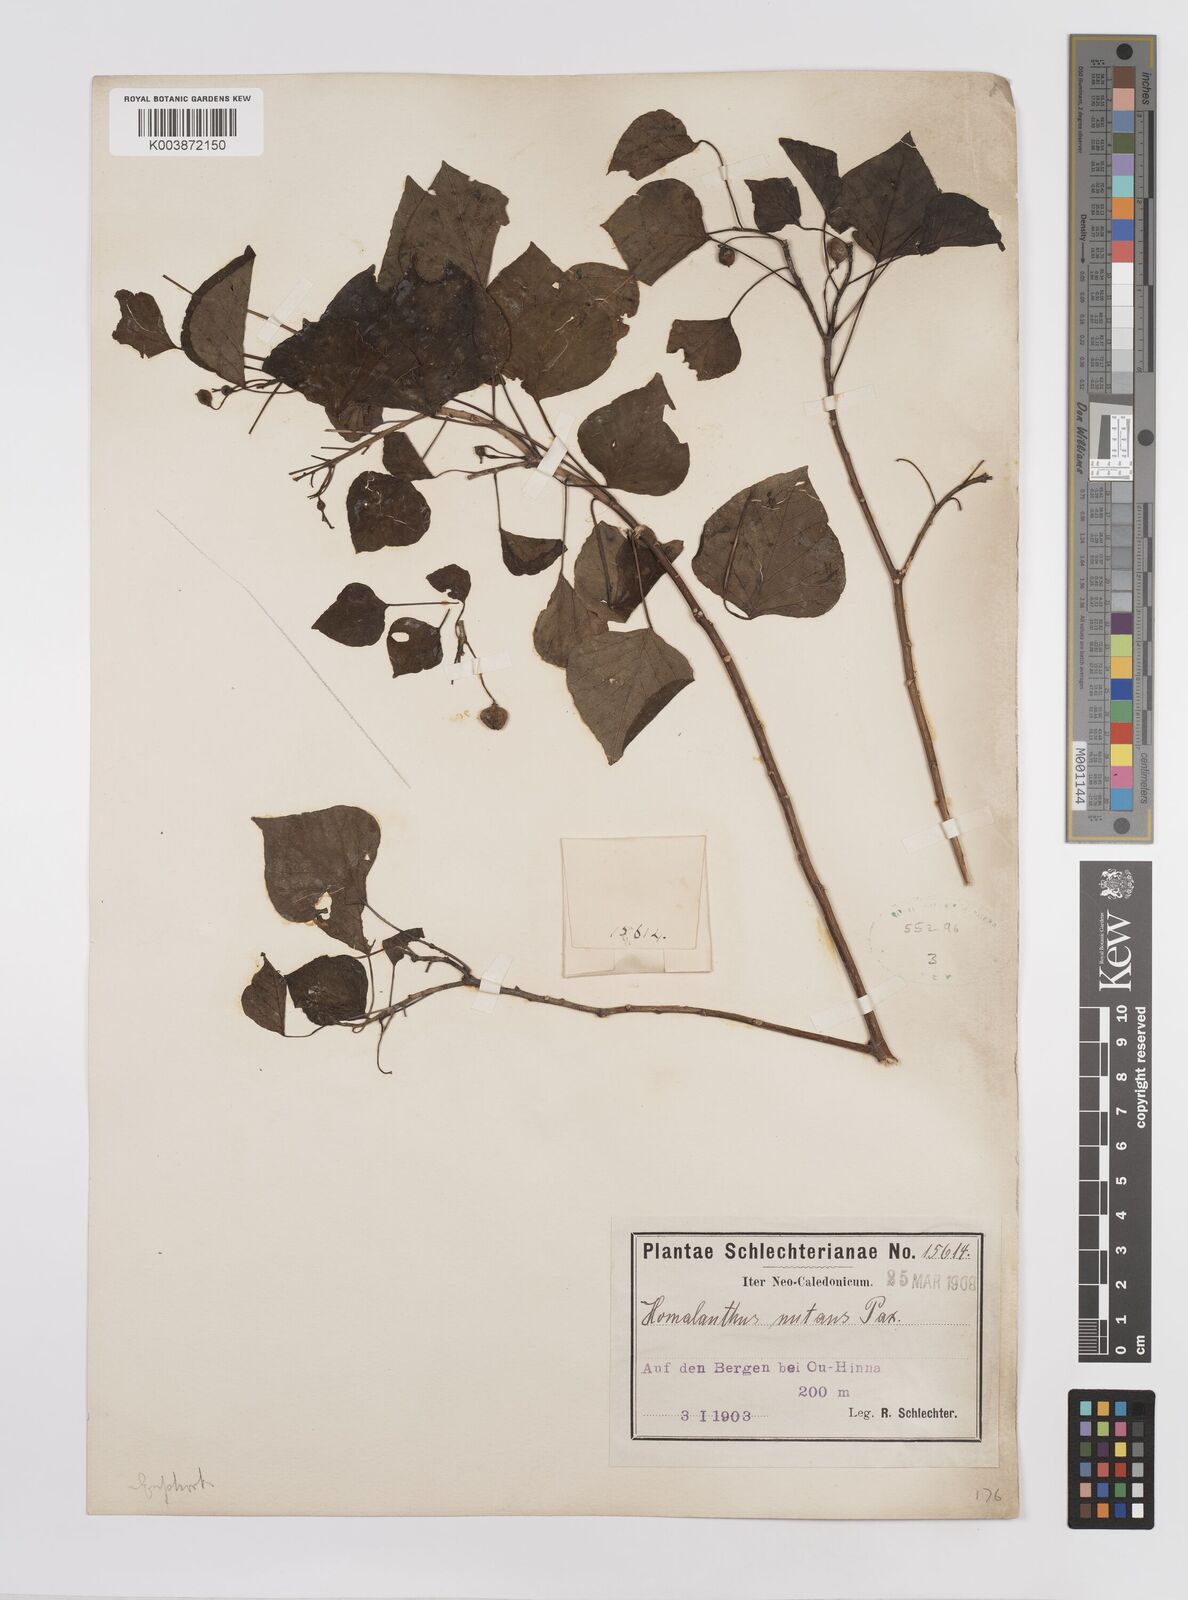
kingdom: Plantae
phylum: Tracheophyta
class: Magnoliopsida
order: Malpighiales
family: Euphorbiaceae
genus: Homalanthus
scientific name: Homalanthus nutans
